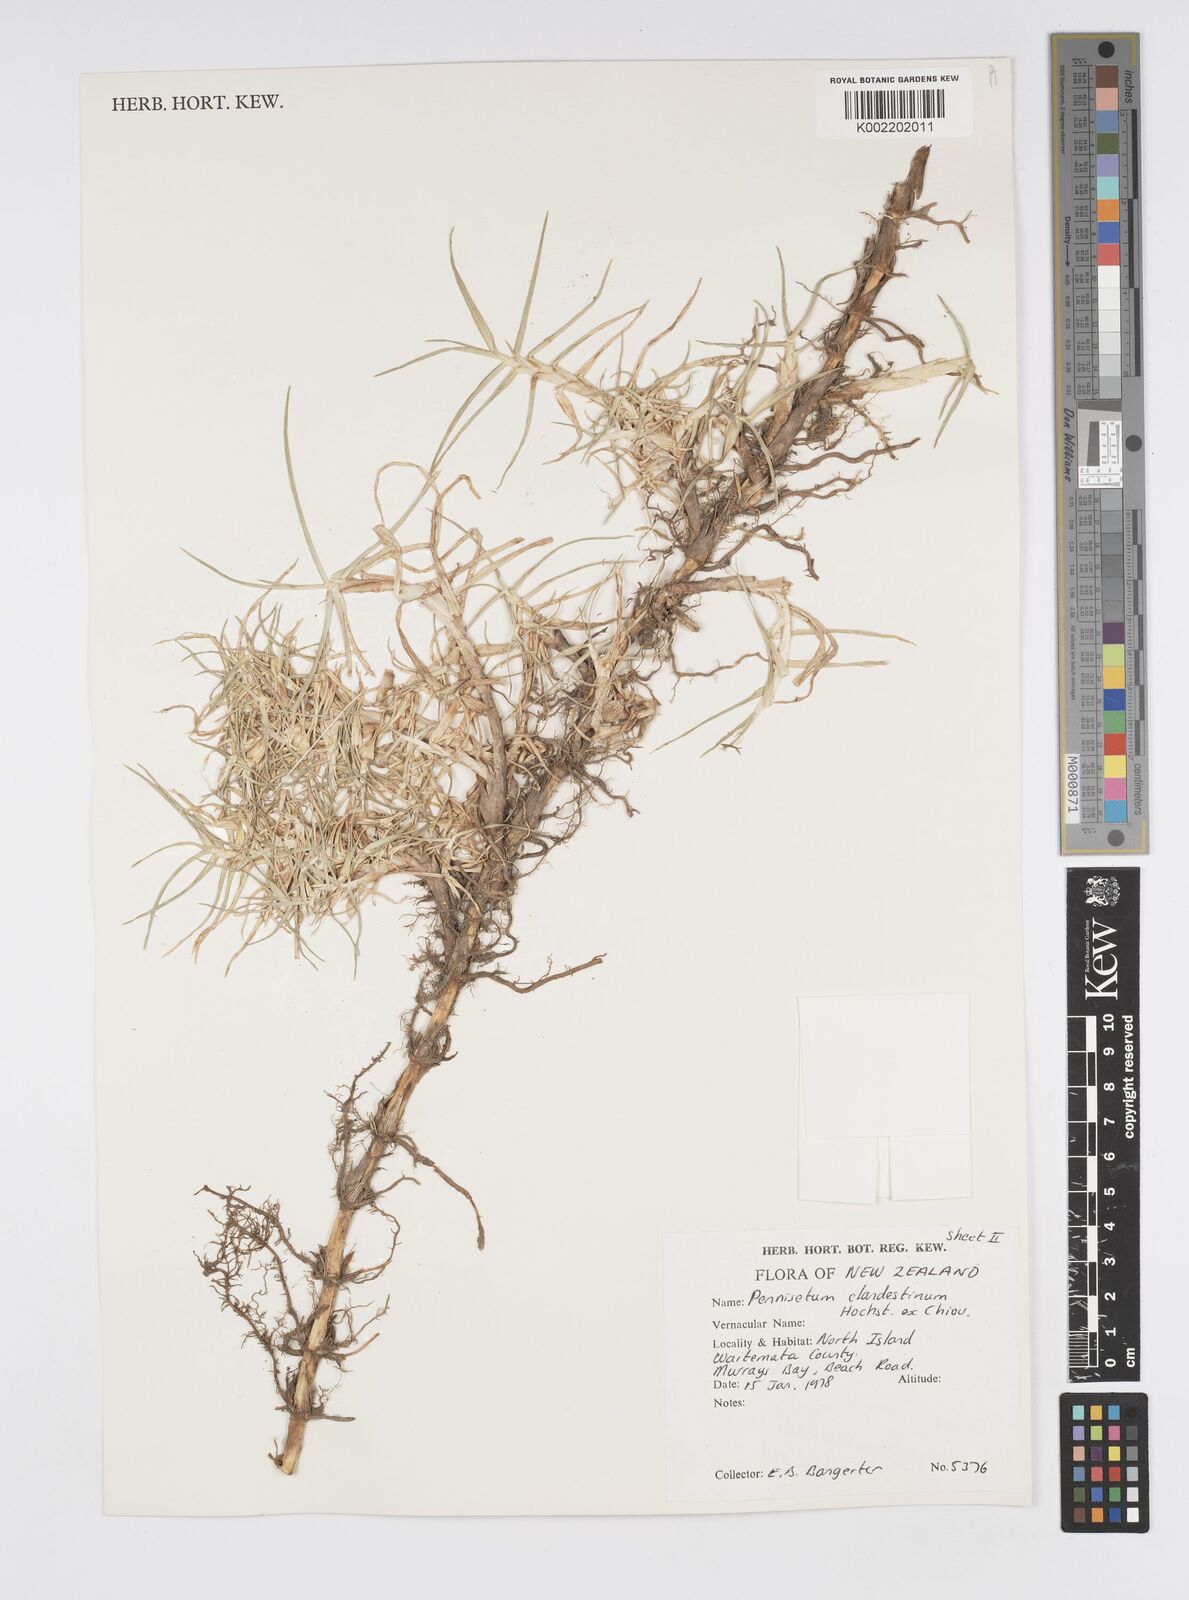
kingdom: Plantae
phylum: Tracheophyta
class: Liliopsida
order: Poales
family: Poaceae
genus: Cenchrus
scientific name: Cenchrus clandestinus
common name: Kikuyugrass
